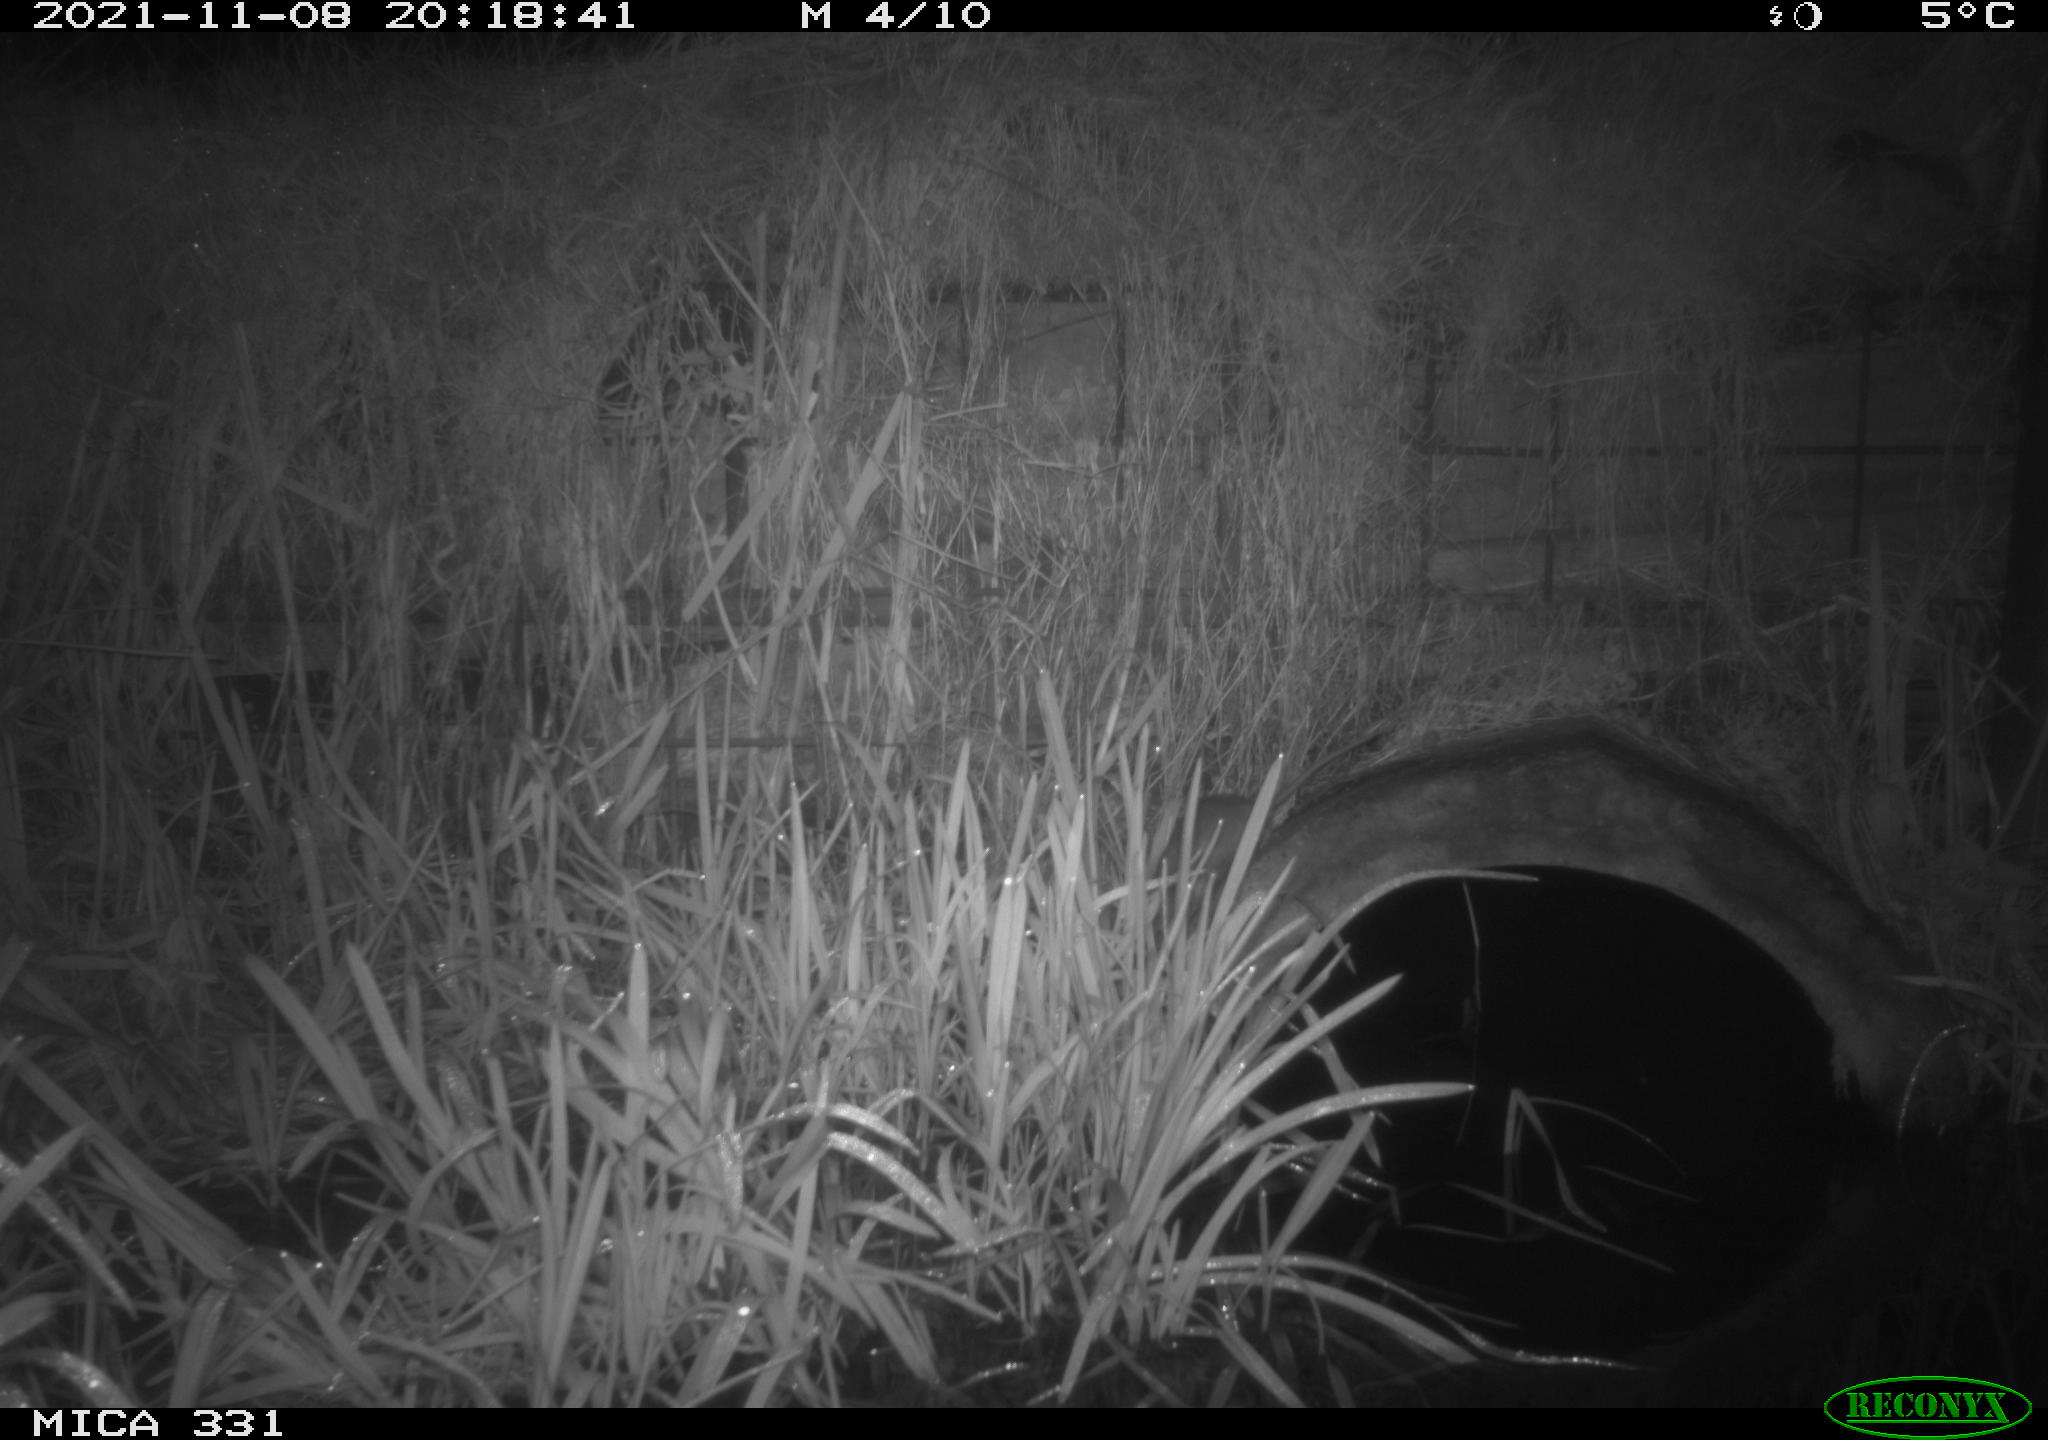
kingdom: Animalia
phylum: Chordata
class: Mammalia
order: Rodentia
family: Muridae
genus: Rattus
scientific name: Rattus norvegicus
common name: Brown rat
